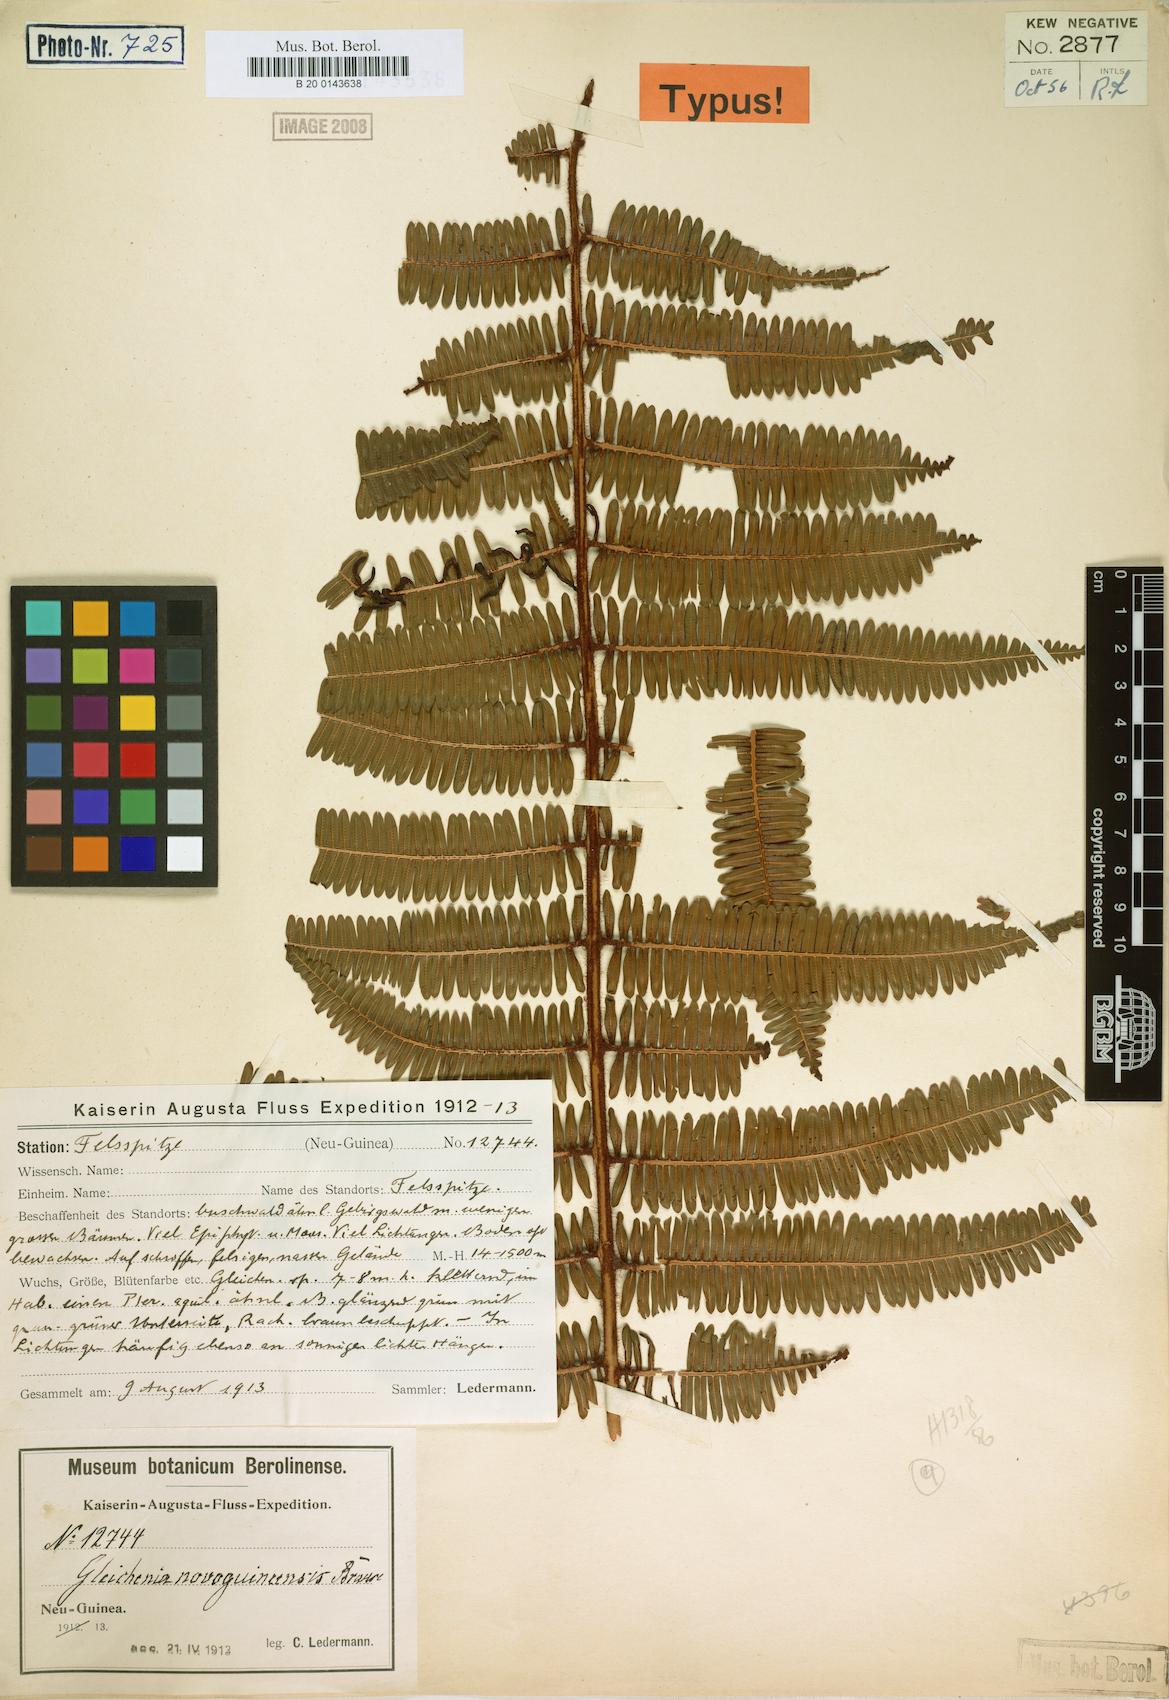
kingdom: Plantae
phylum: Tracheophyta
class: Polypodiopsida
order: Gleicheniales
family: Gleicheniaceae
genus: Diplopterygium
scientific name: Diplopterygium sordidum
